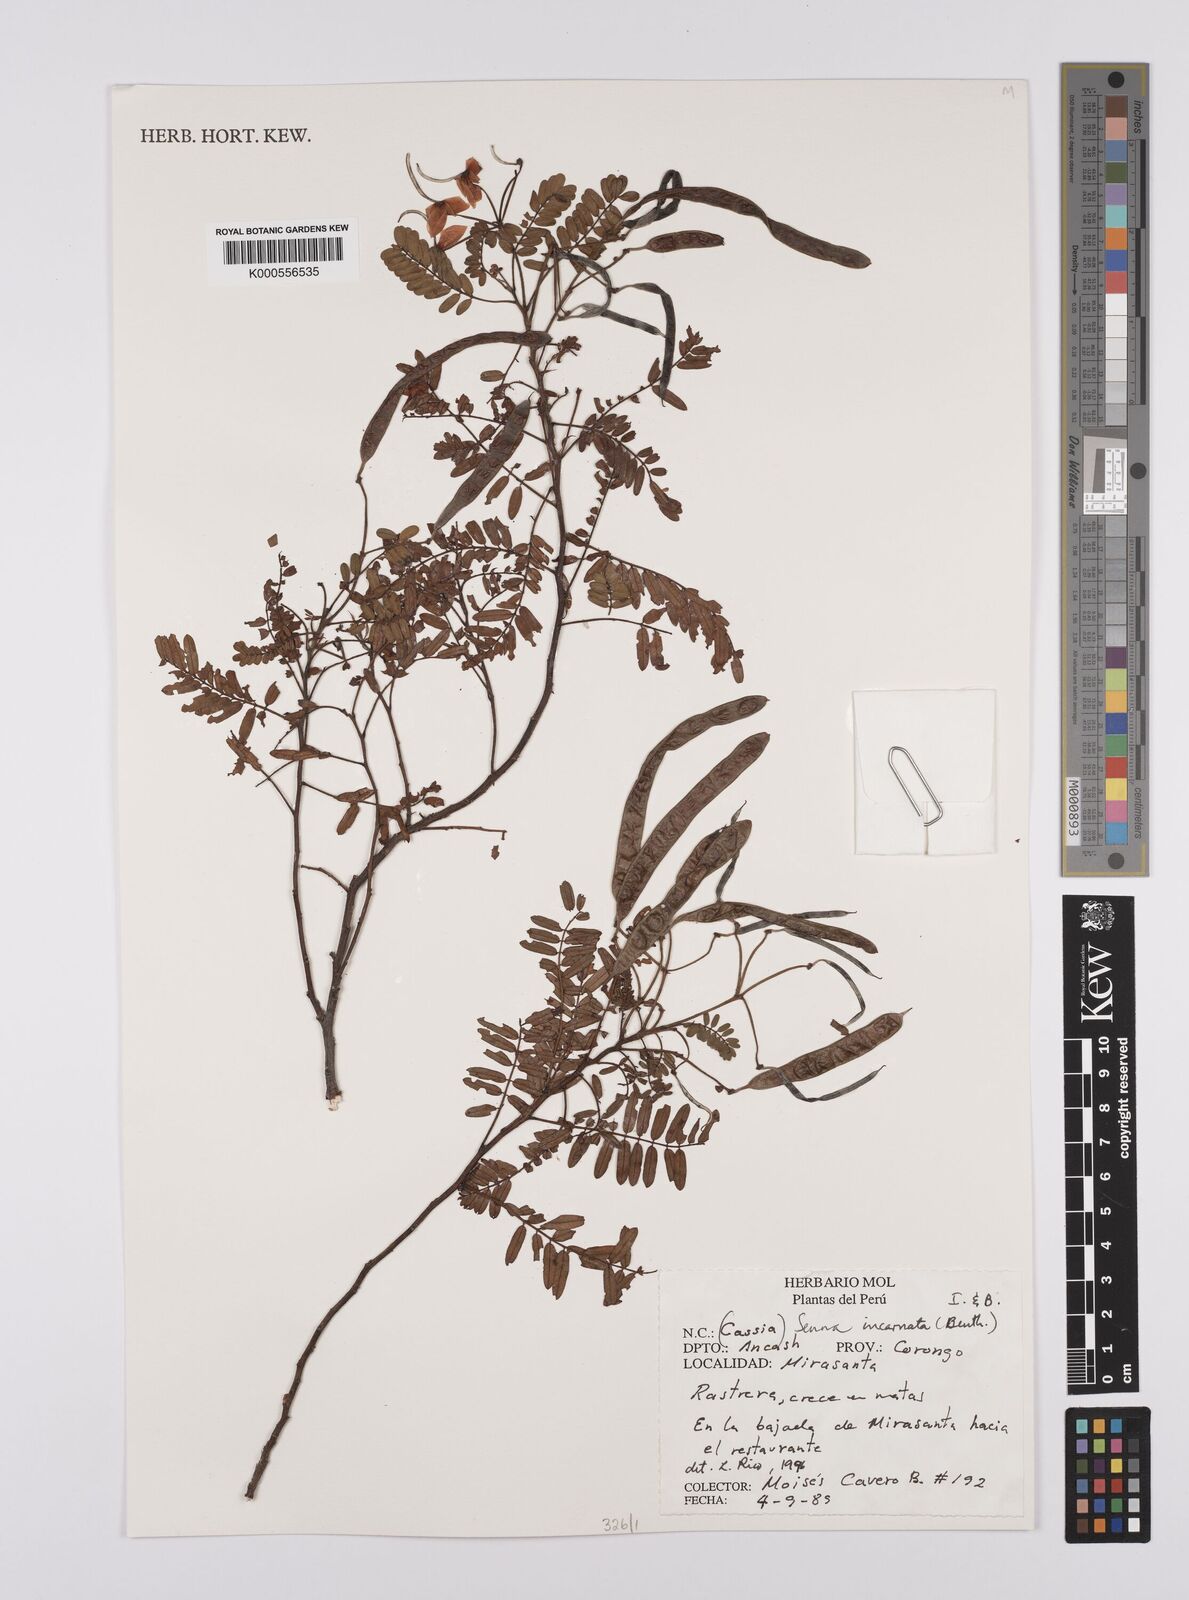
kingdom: Plantae
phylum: Tracheophyta
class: Magnoliopsida
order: Fabales
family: Fabaceae
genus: Senna
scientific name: Senna incarnata
